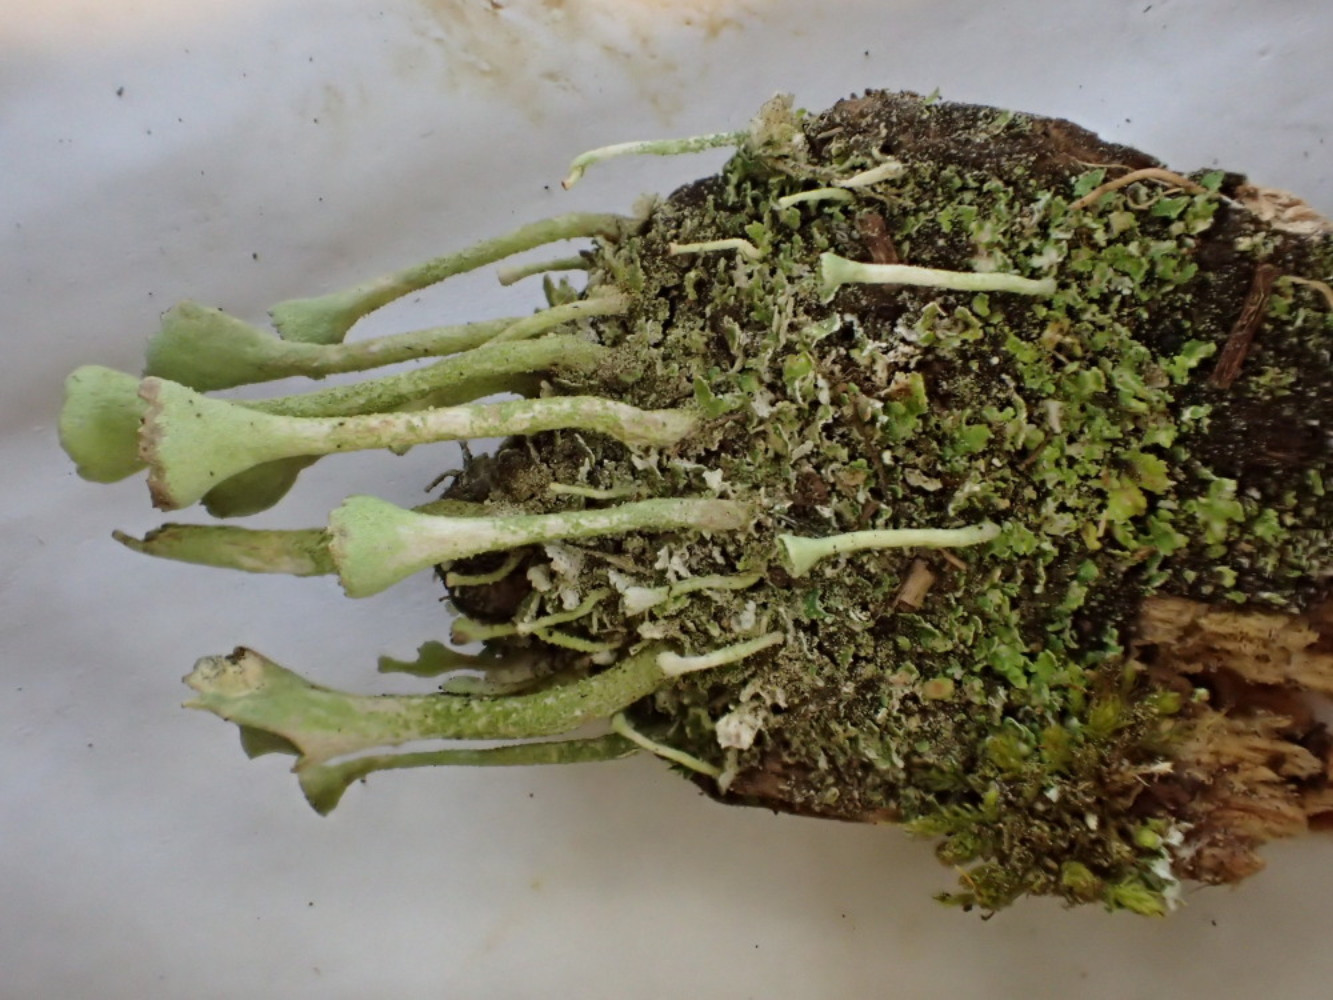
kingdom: Fungi
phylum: Ascomycota
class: Lecanoromycetes
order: Lecanorales
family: Cladoniaceae
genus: Cladonia
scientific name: Cladonia fimbriata
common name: bleggrøn bægerlav
